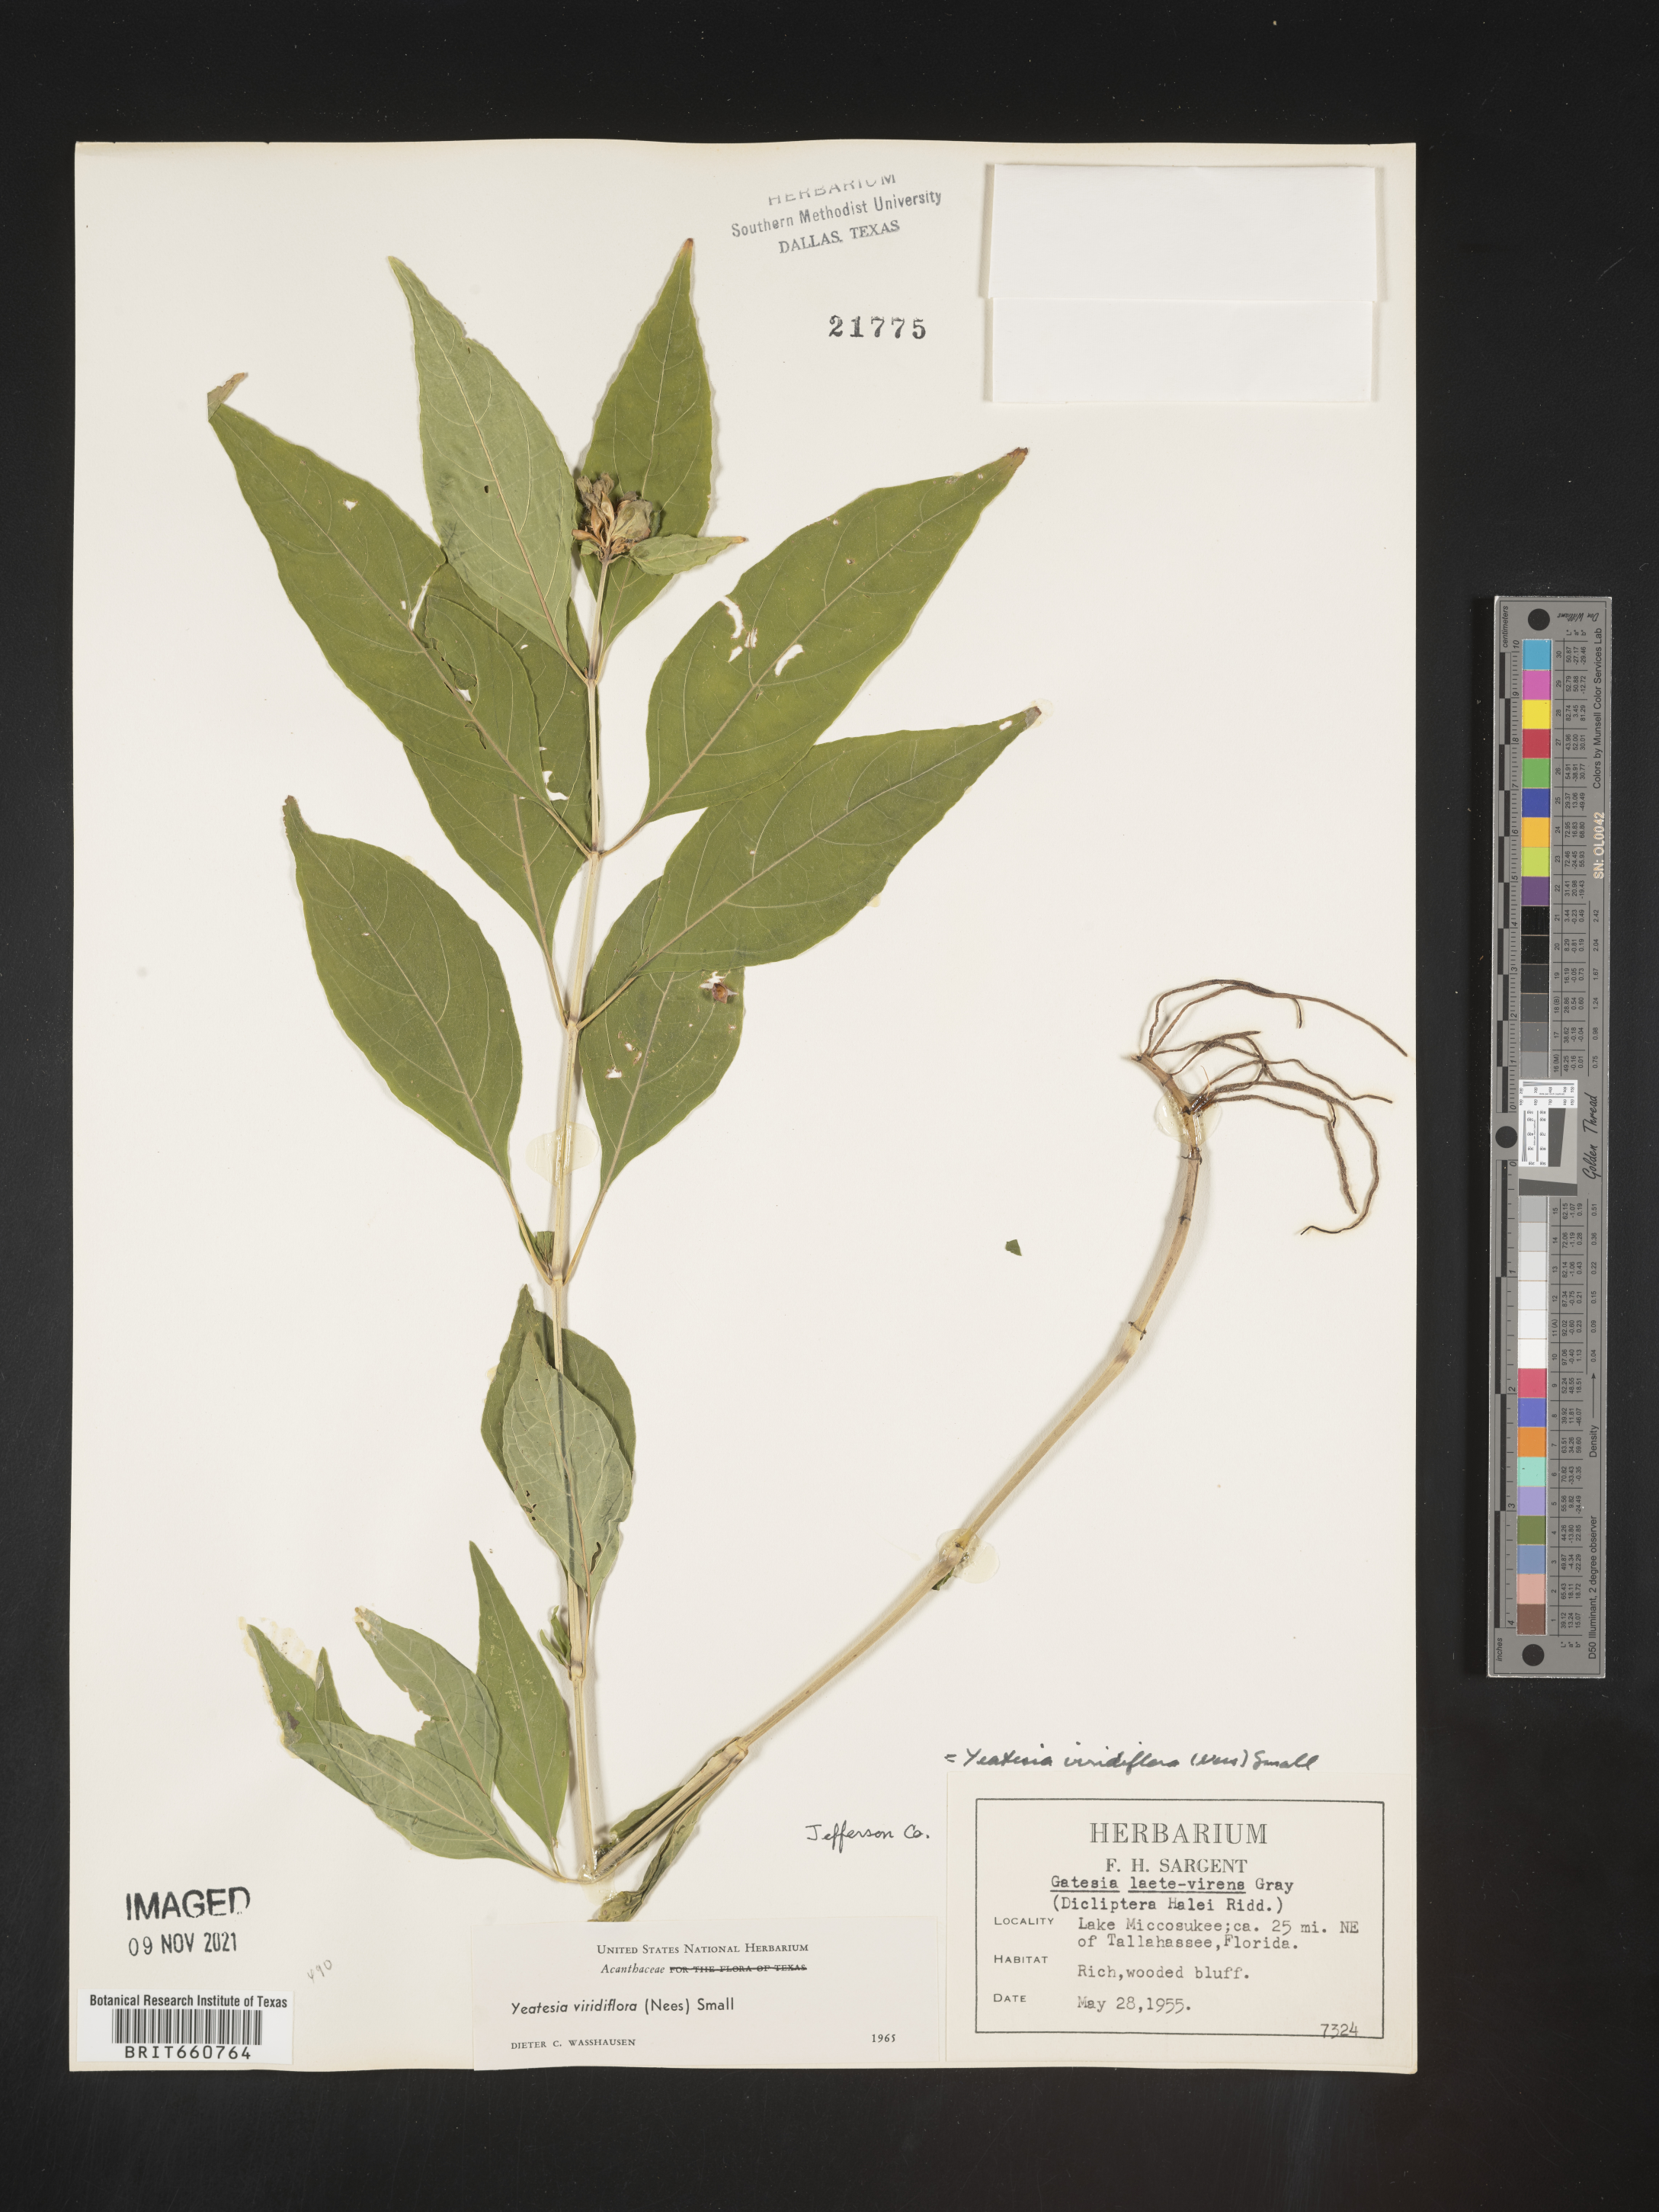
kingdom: Plantae
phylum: Tracheophyta
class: Magnoliopsida
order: Lamiales
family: Acanthaceae
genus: Yeatesia
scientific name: Yeatesia
